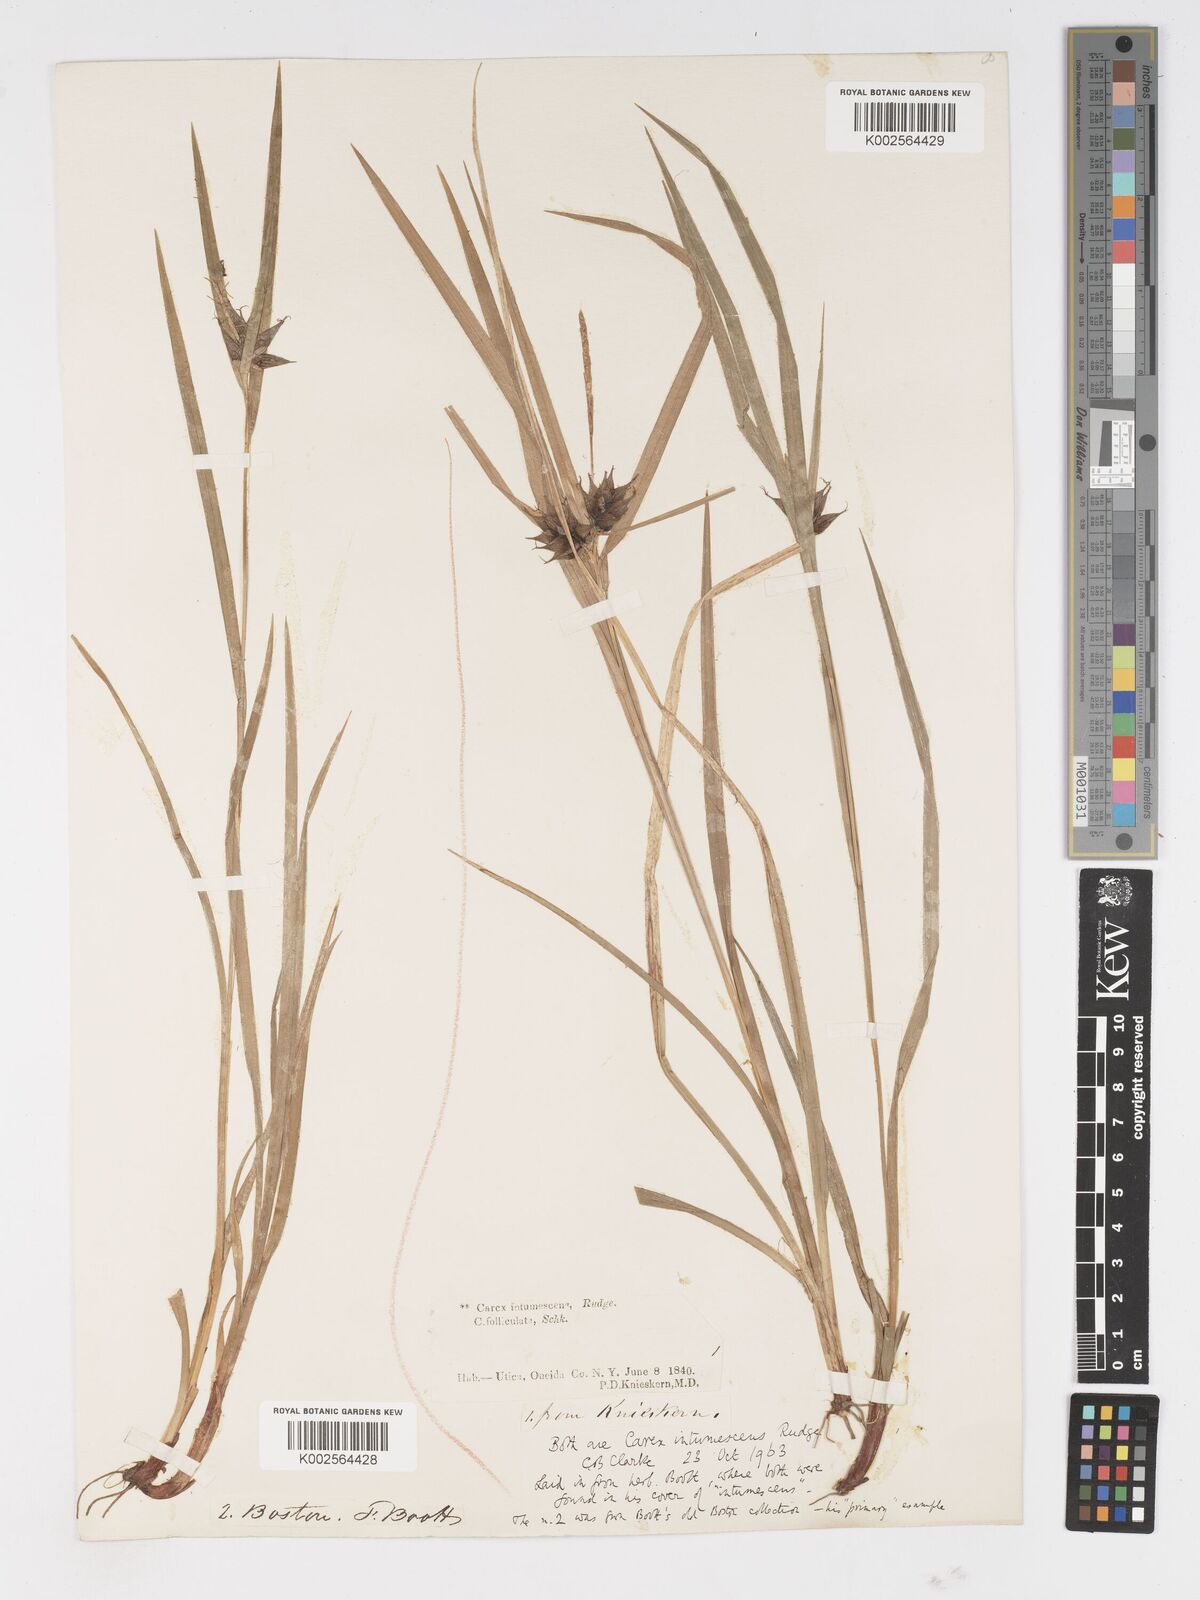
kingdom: Plantae
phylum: Tracheophyta
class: Liliopsida
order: Poales
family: Cyperaceae
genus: Carex
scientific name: Carex intumescens
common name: Greater bladder sedge
